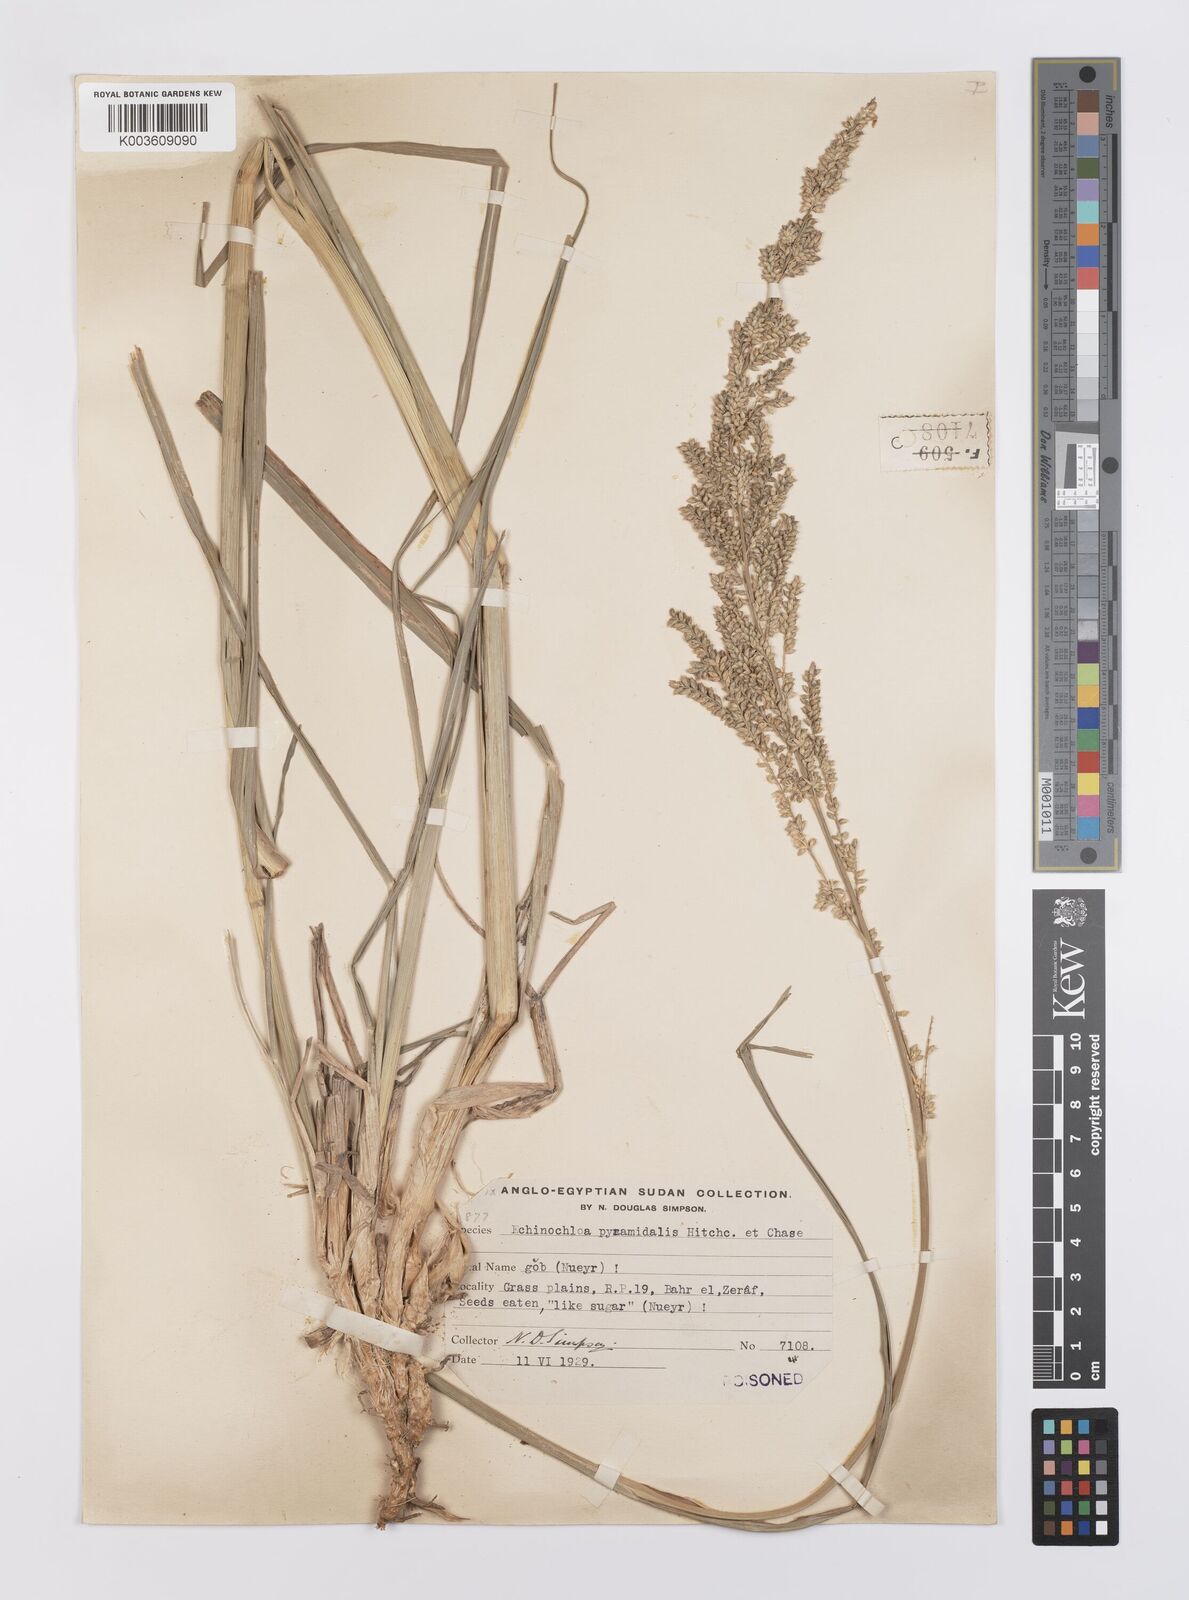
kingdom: Plantae
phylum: Tracheophyta
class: Liliopsida
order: Poales
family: Poaceae
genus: Echinochloa
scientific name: Echinochloa pyramidalis
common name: Antelope grass
